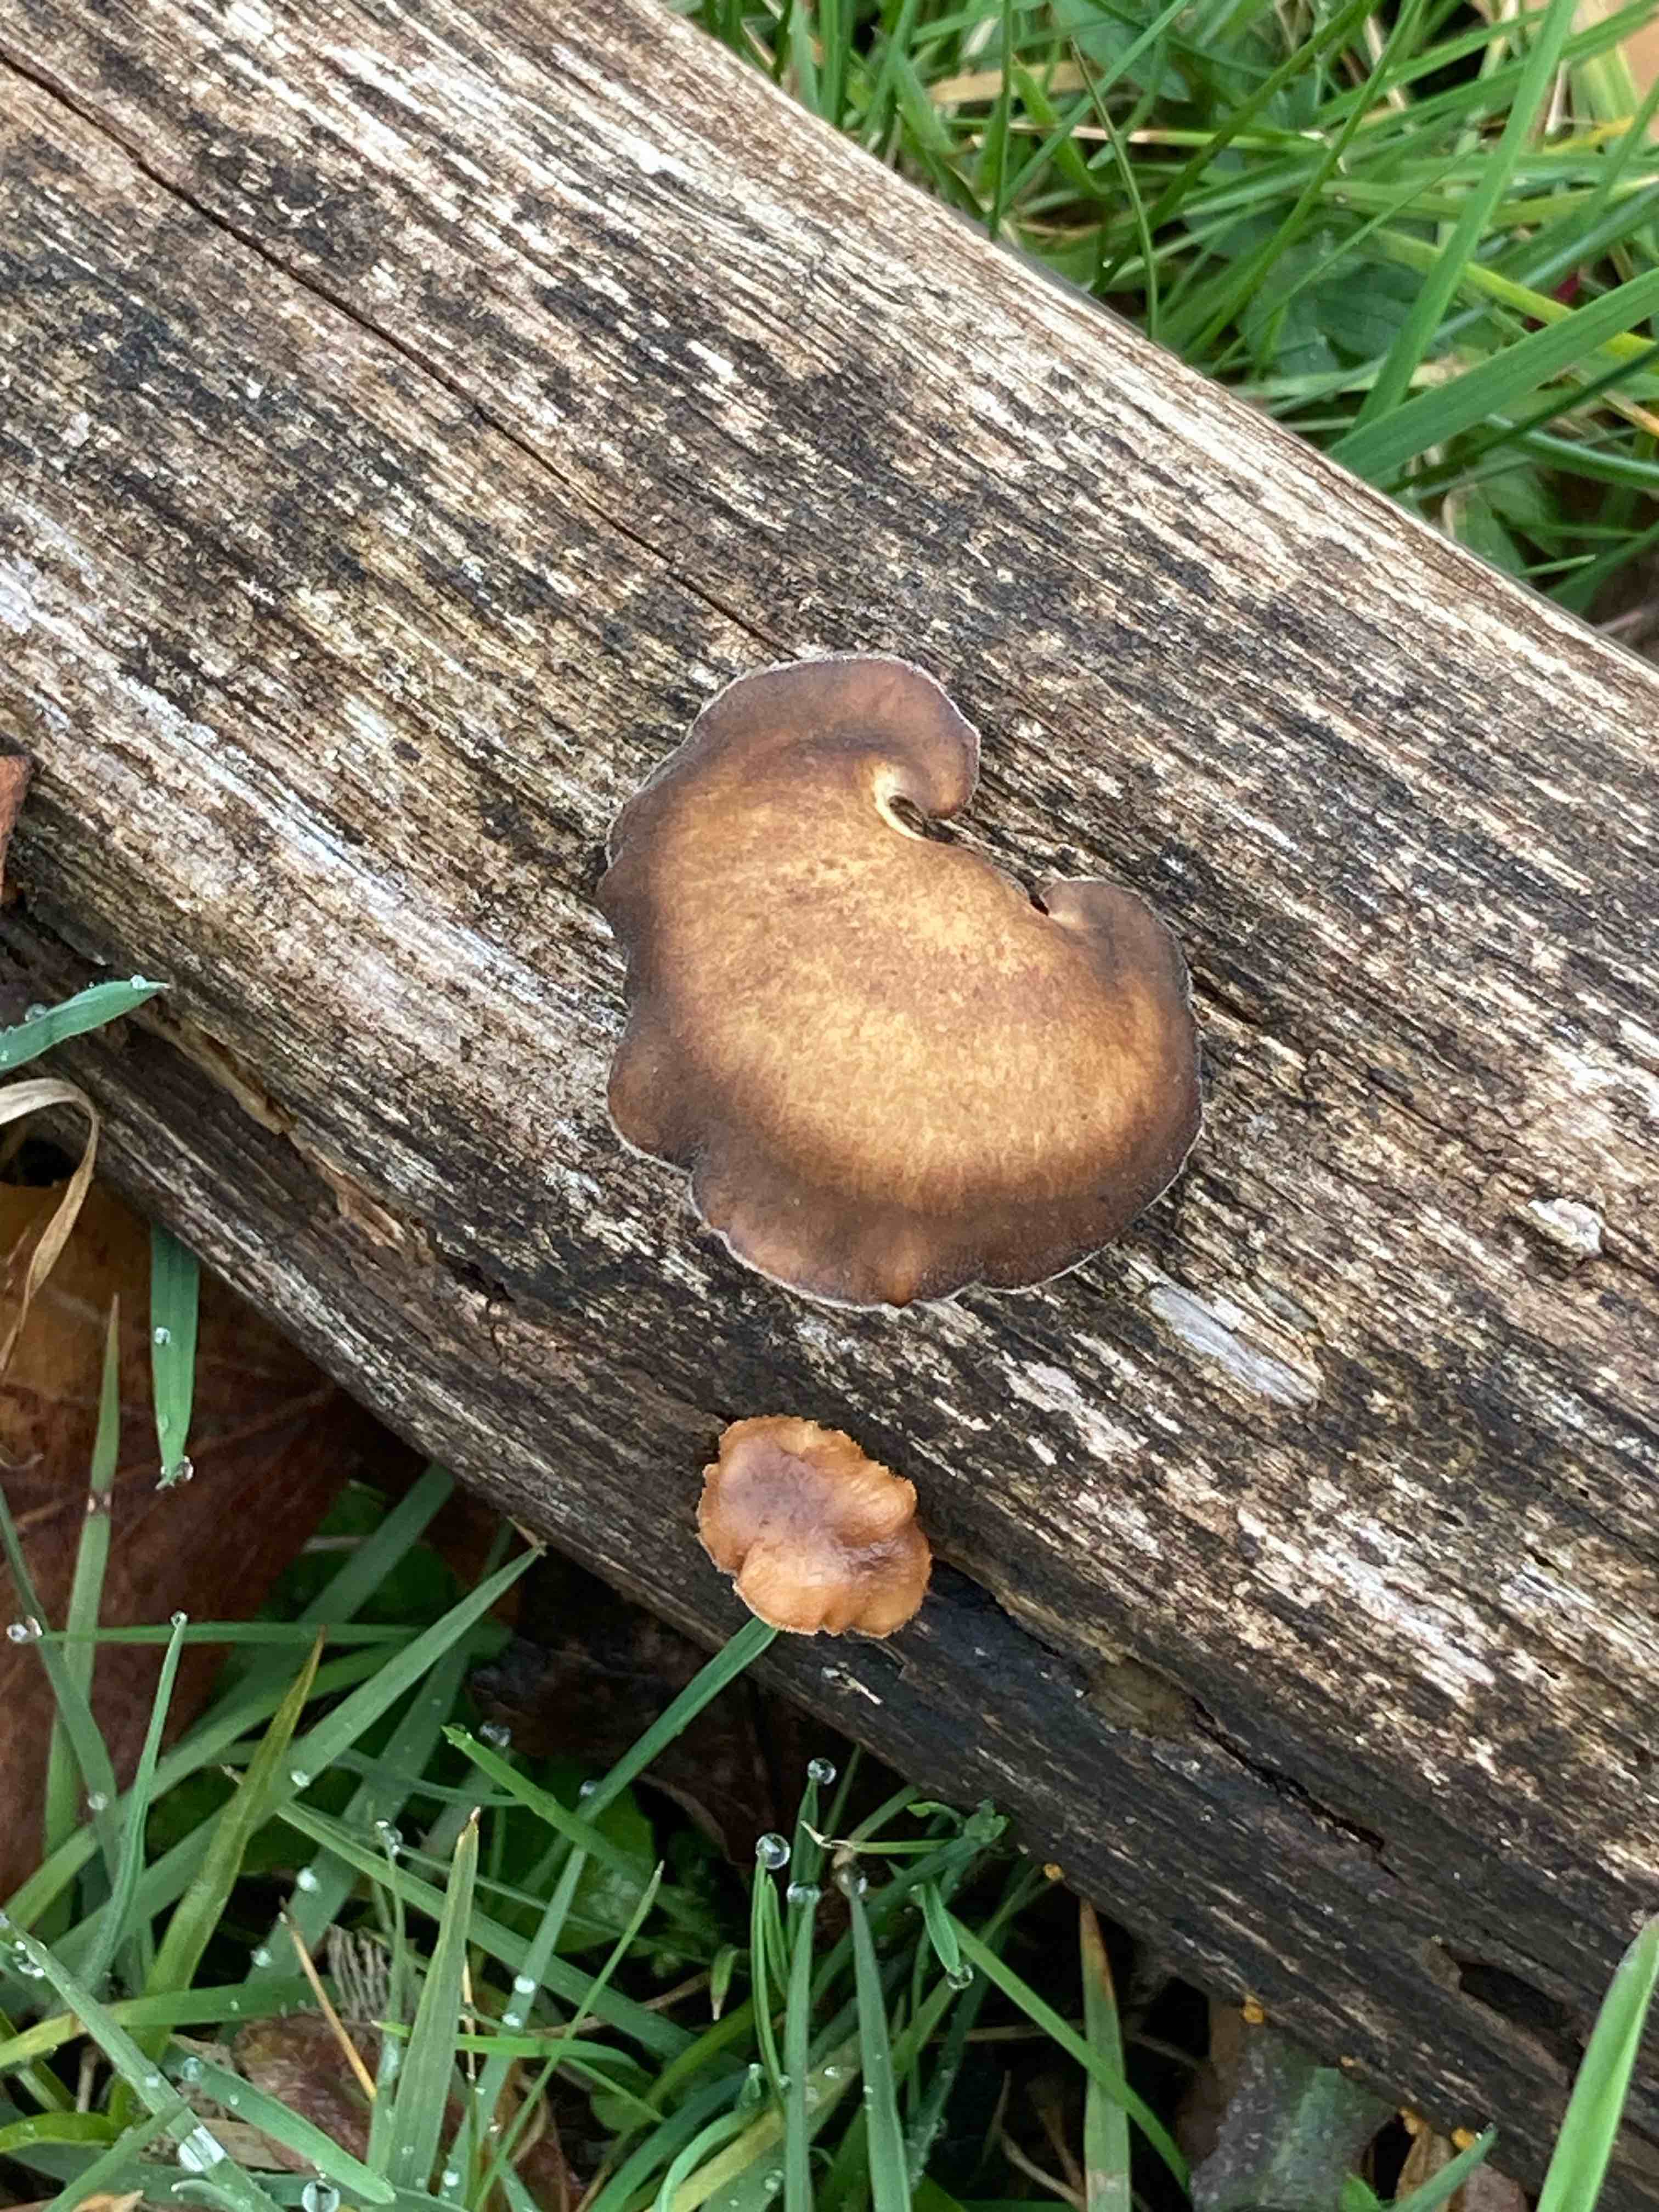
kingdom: Fungi
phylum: Basidiomycota
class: Agaricomycetes
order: Polyporales
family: Polyporaceae
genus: Lentinus
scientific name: Lentinus brumalis
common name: vinter-stilkporesvamp
